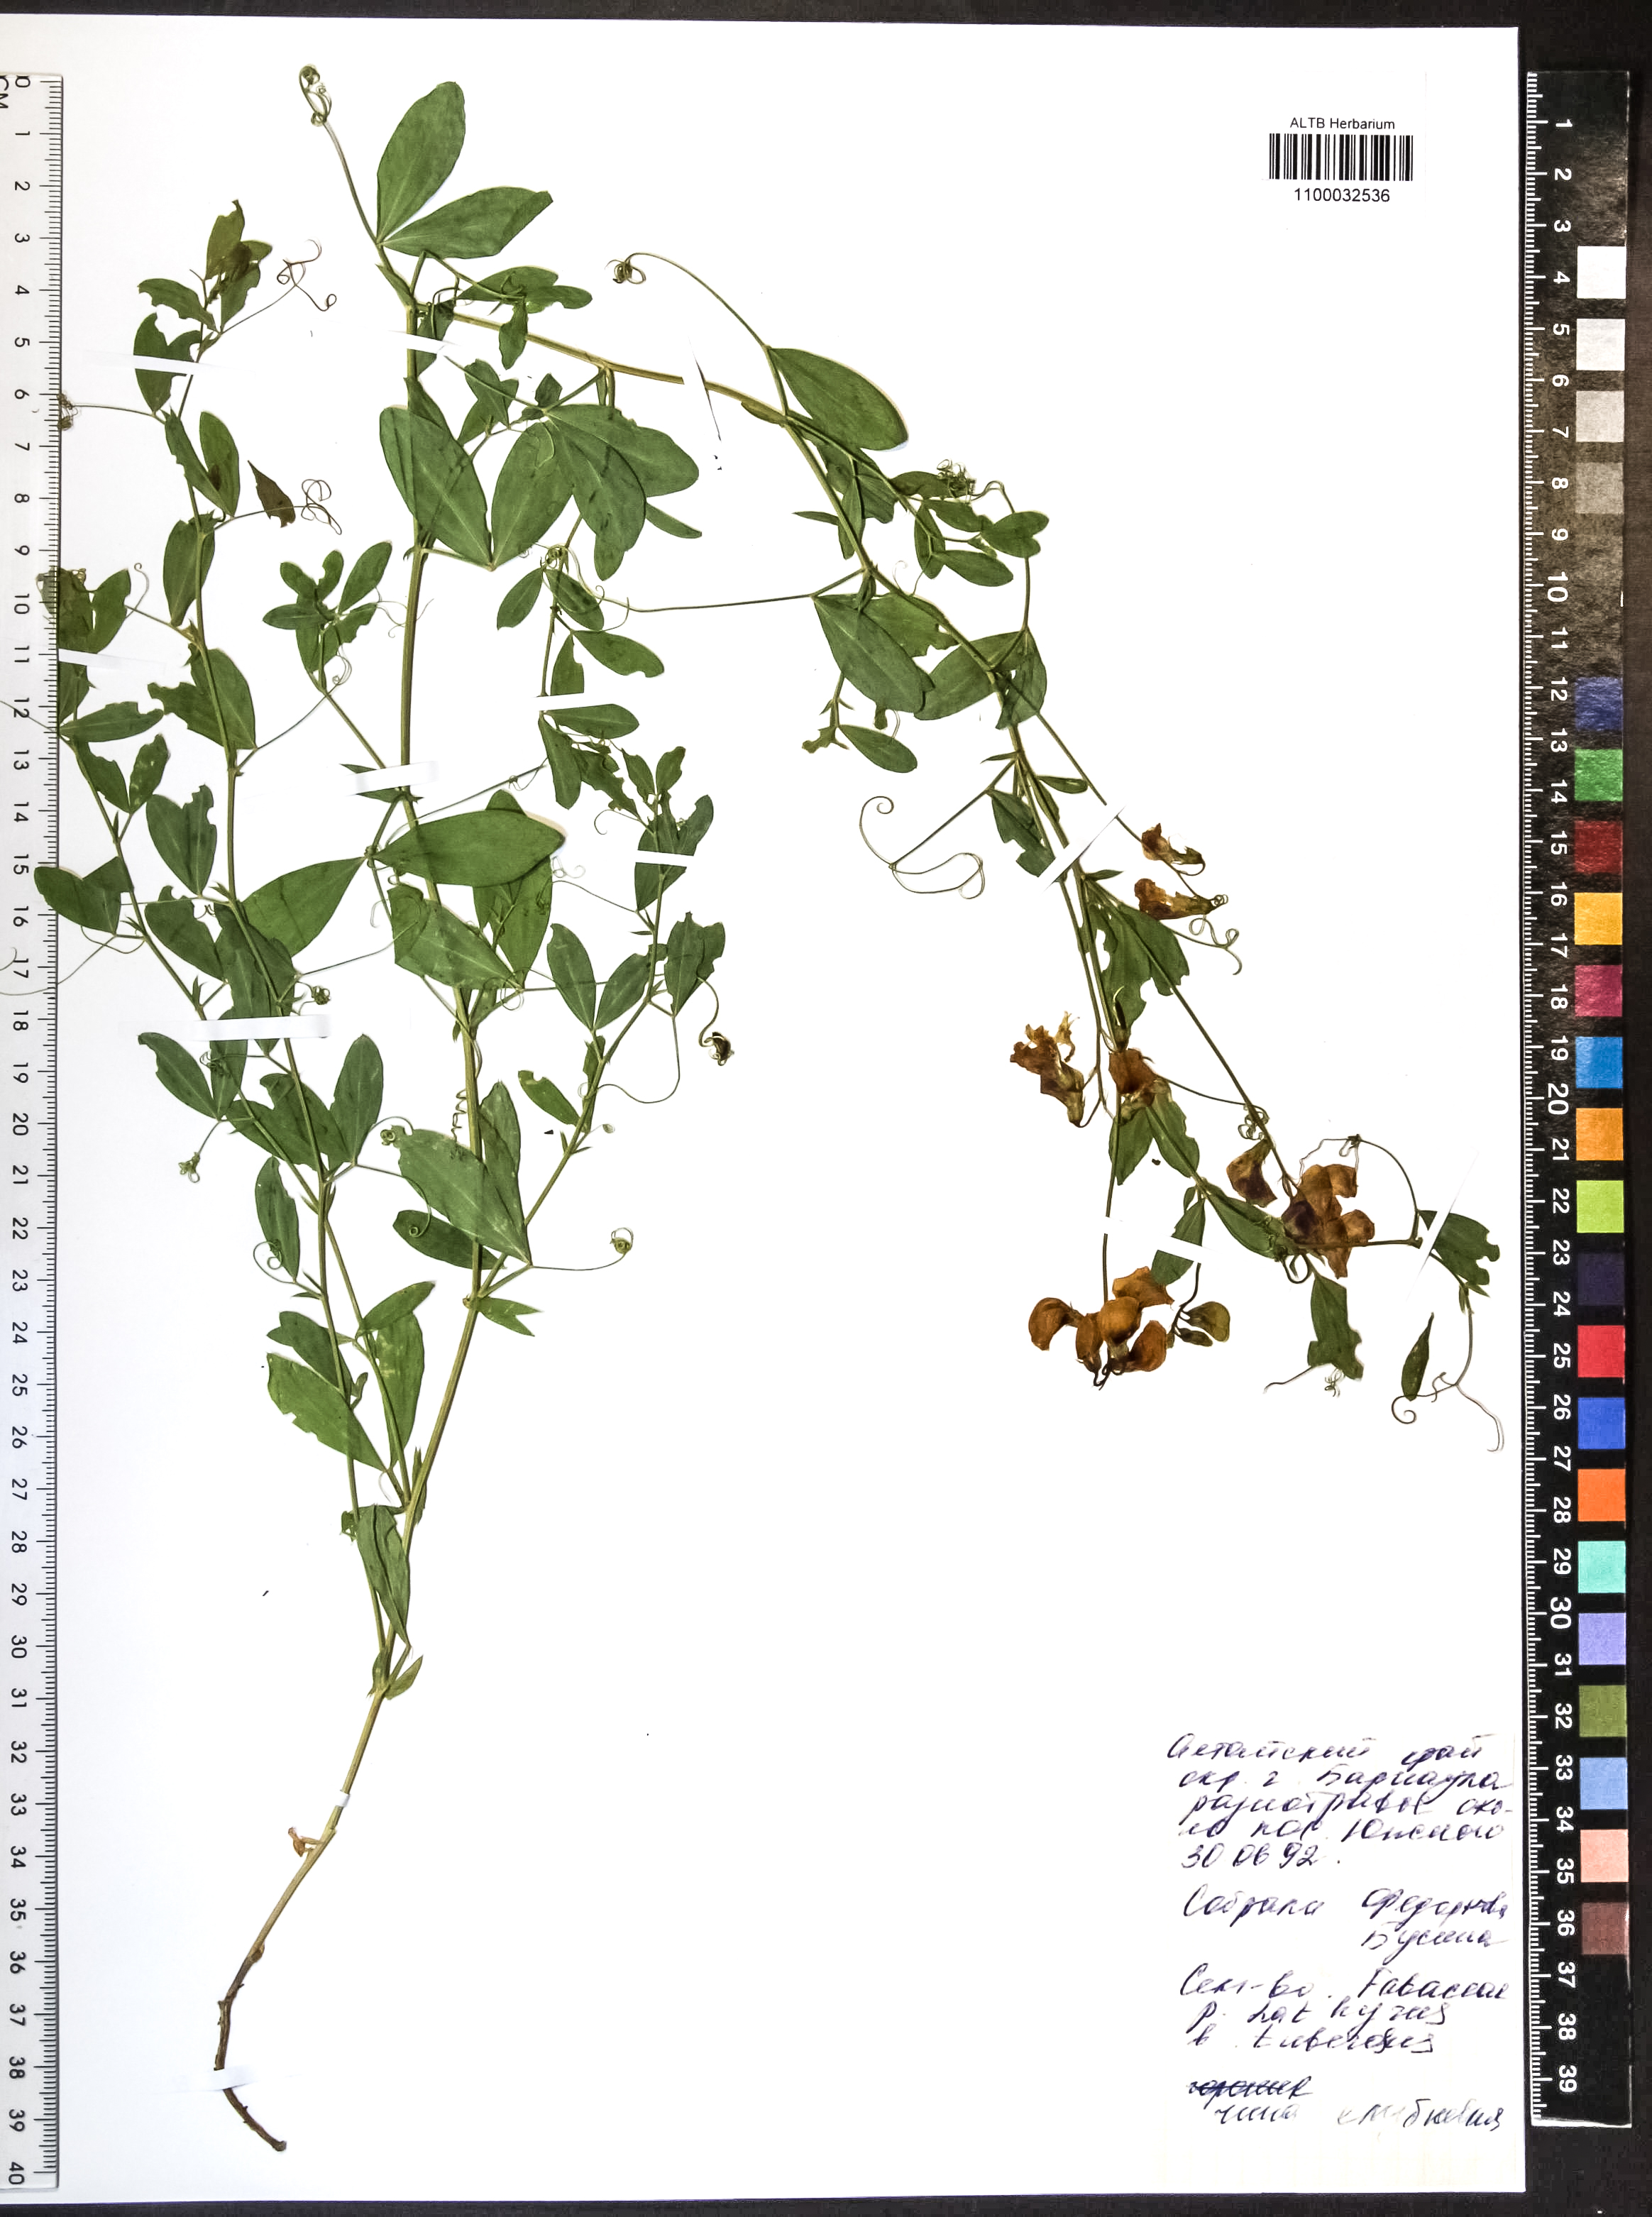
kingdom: Plantae
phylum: Tracheophyta
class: Magnoliopsida
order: Fabales
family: Fabaceae
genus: Lathyrus
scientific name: Lathyrus tuberosus
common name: Tuberous pea
